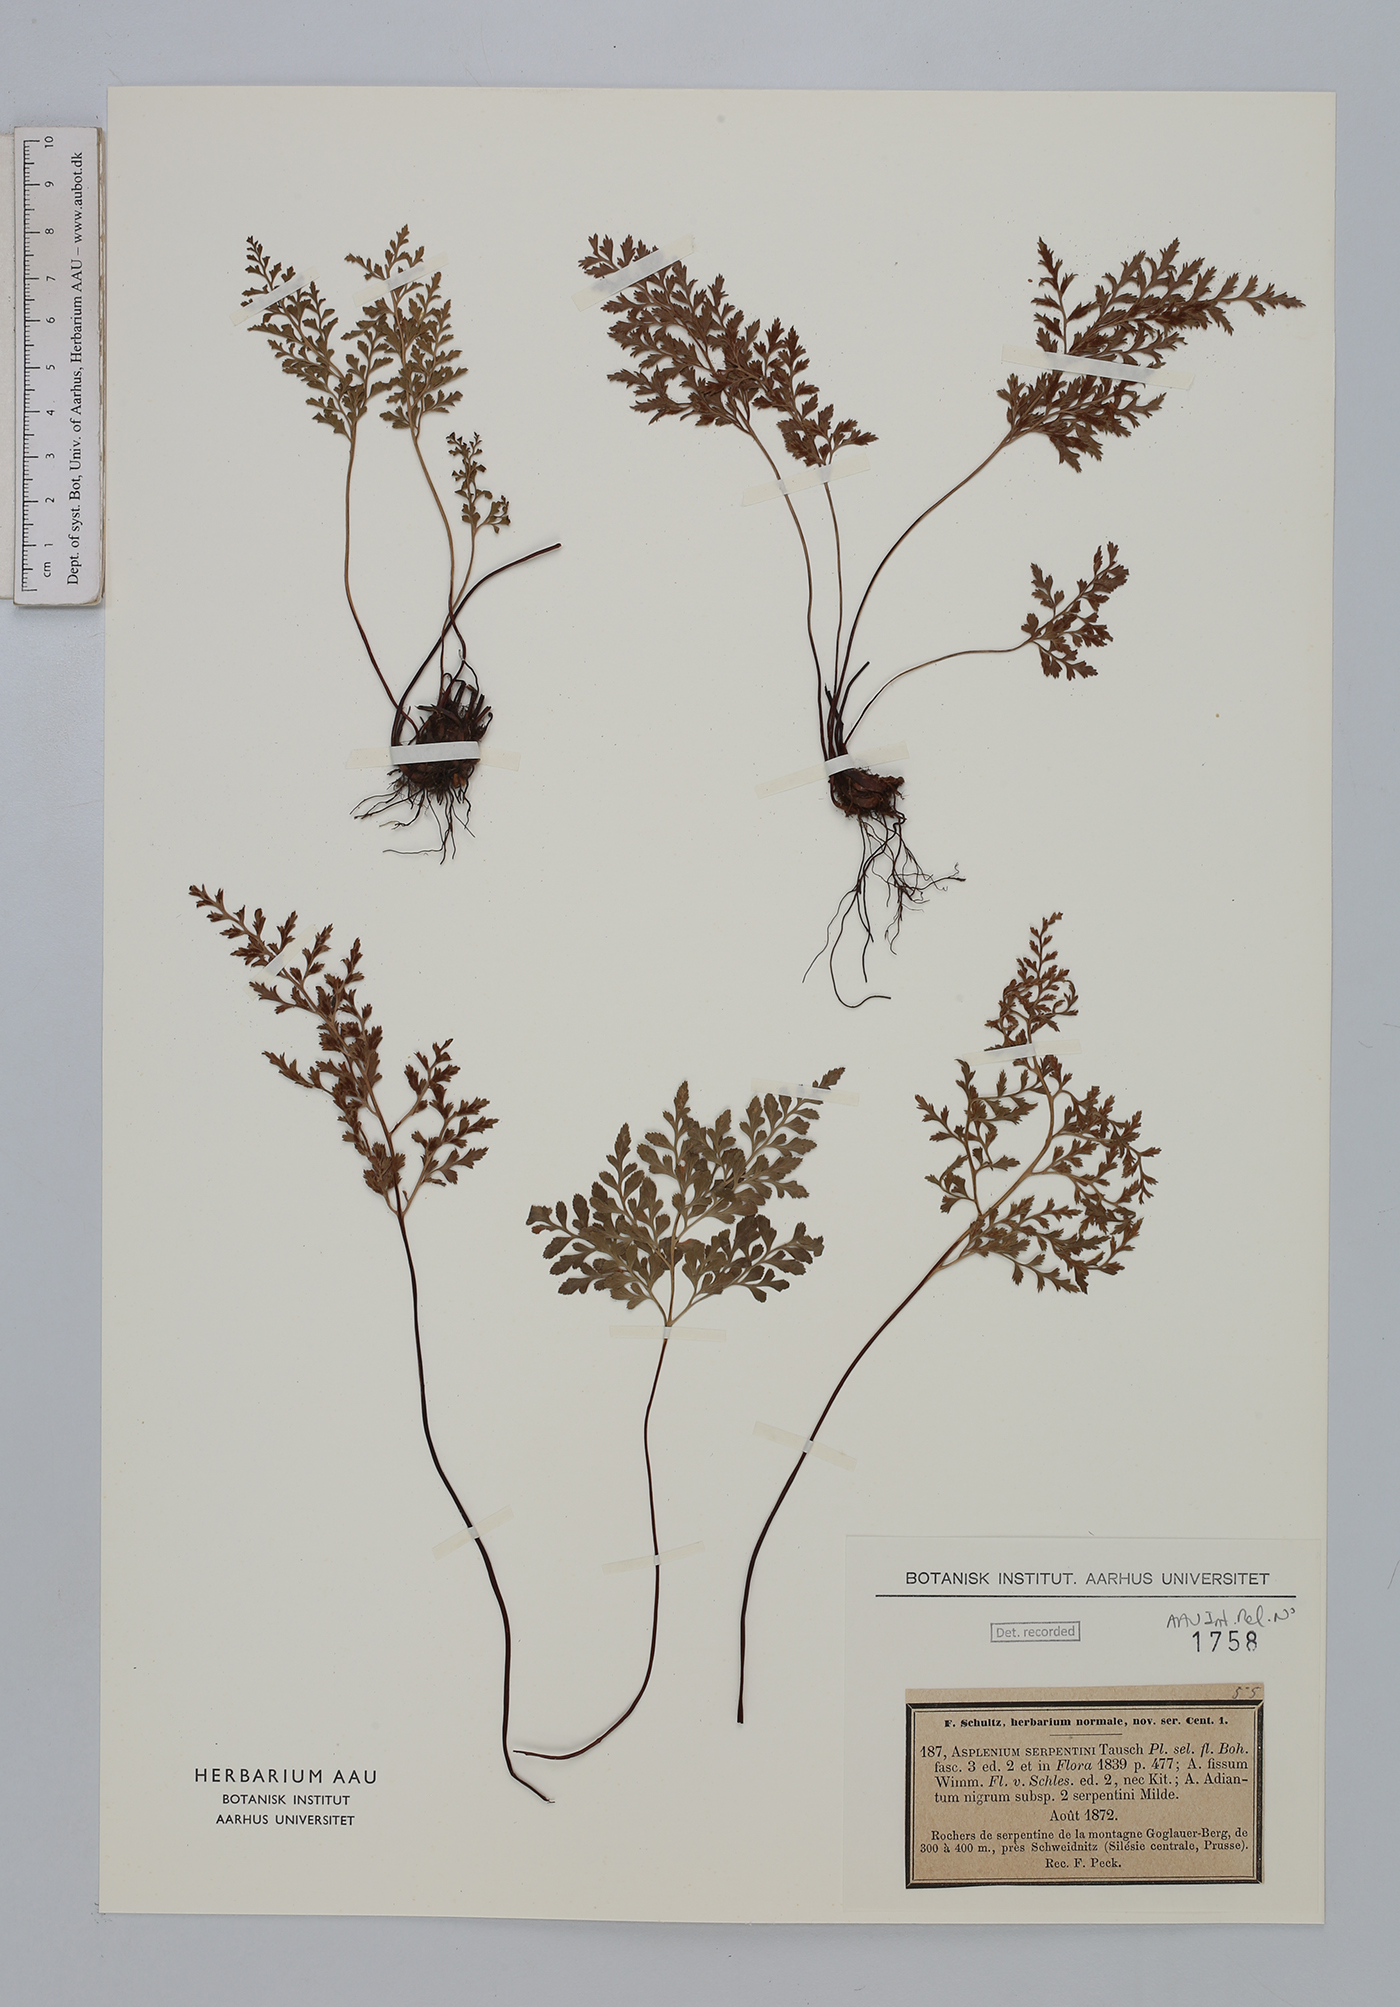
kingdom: Plantae
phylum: Tracheophyta
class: Polypodiopsida
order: Polypodiales
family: Aspleniaceae
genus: Asplenium
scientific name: Asplenium cuneifolium
